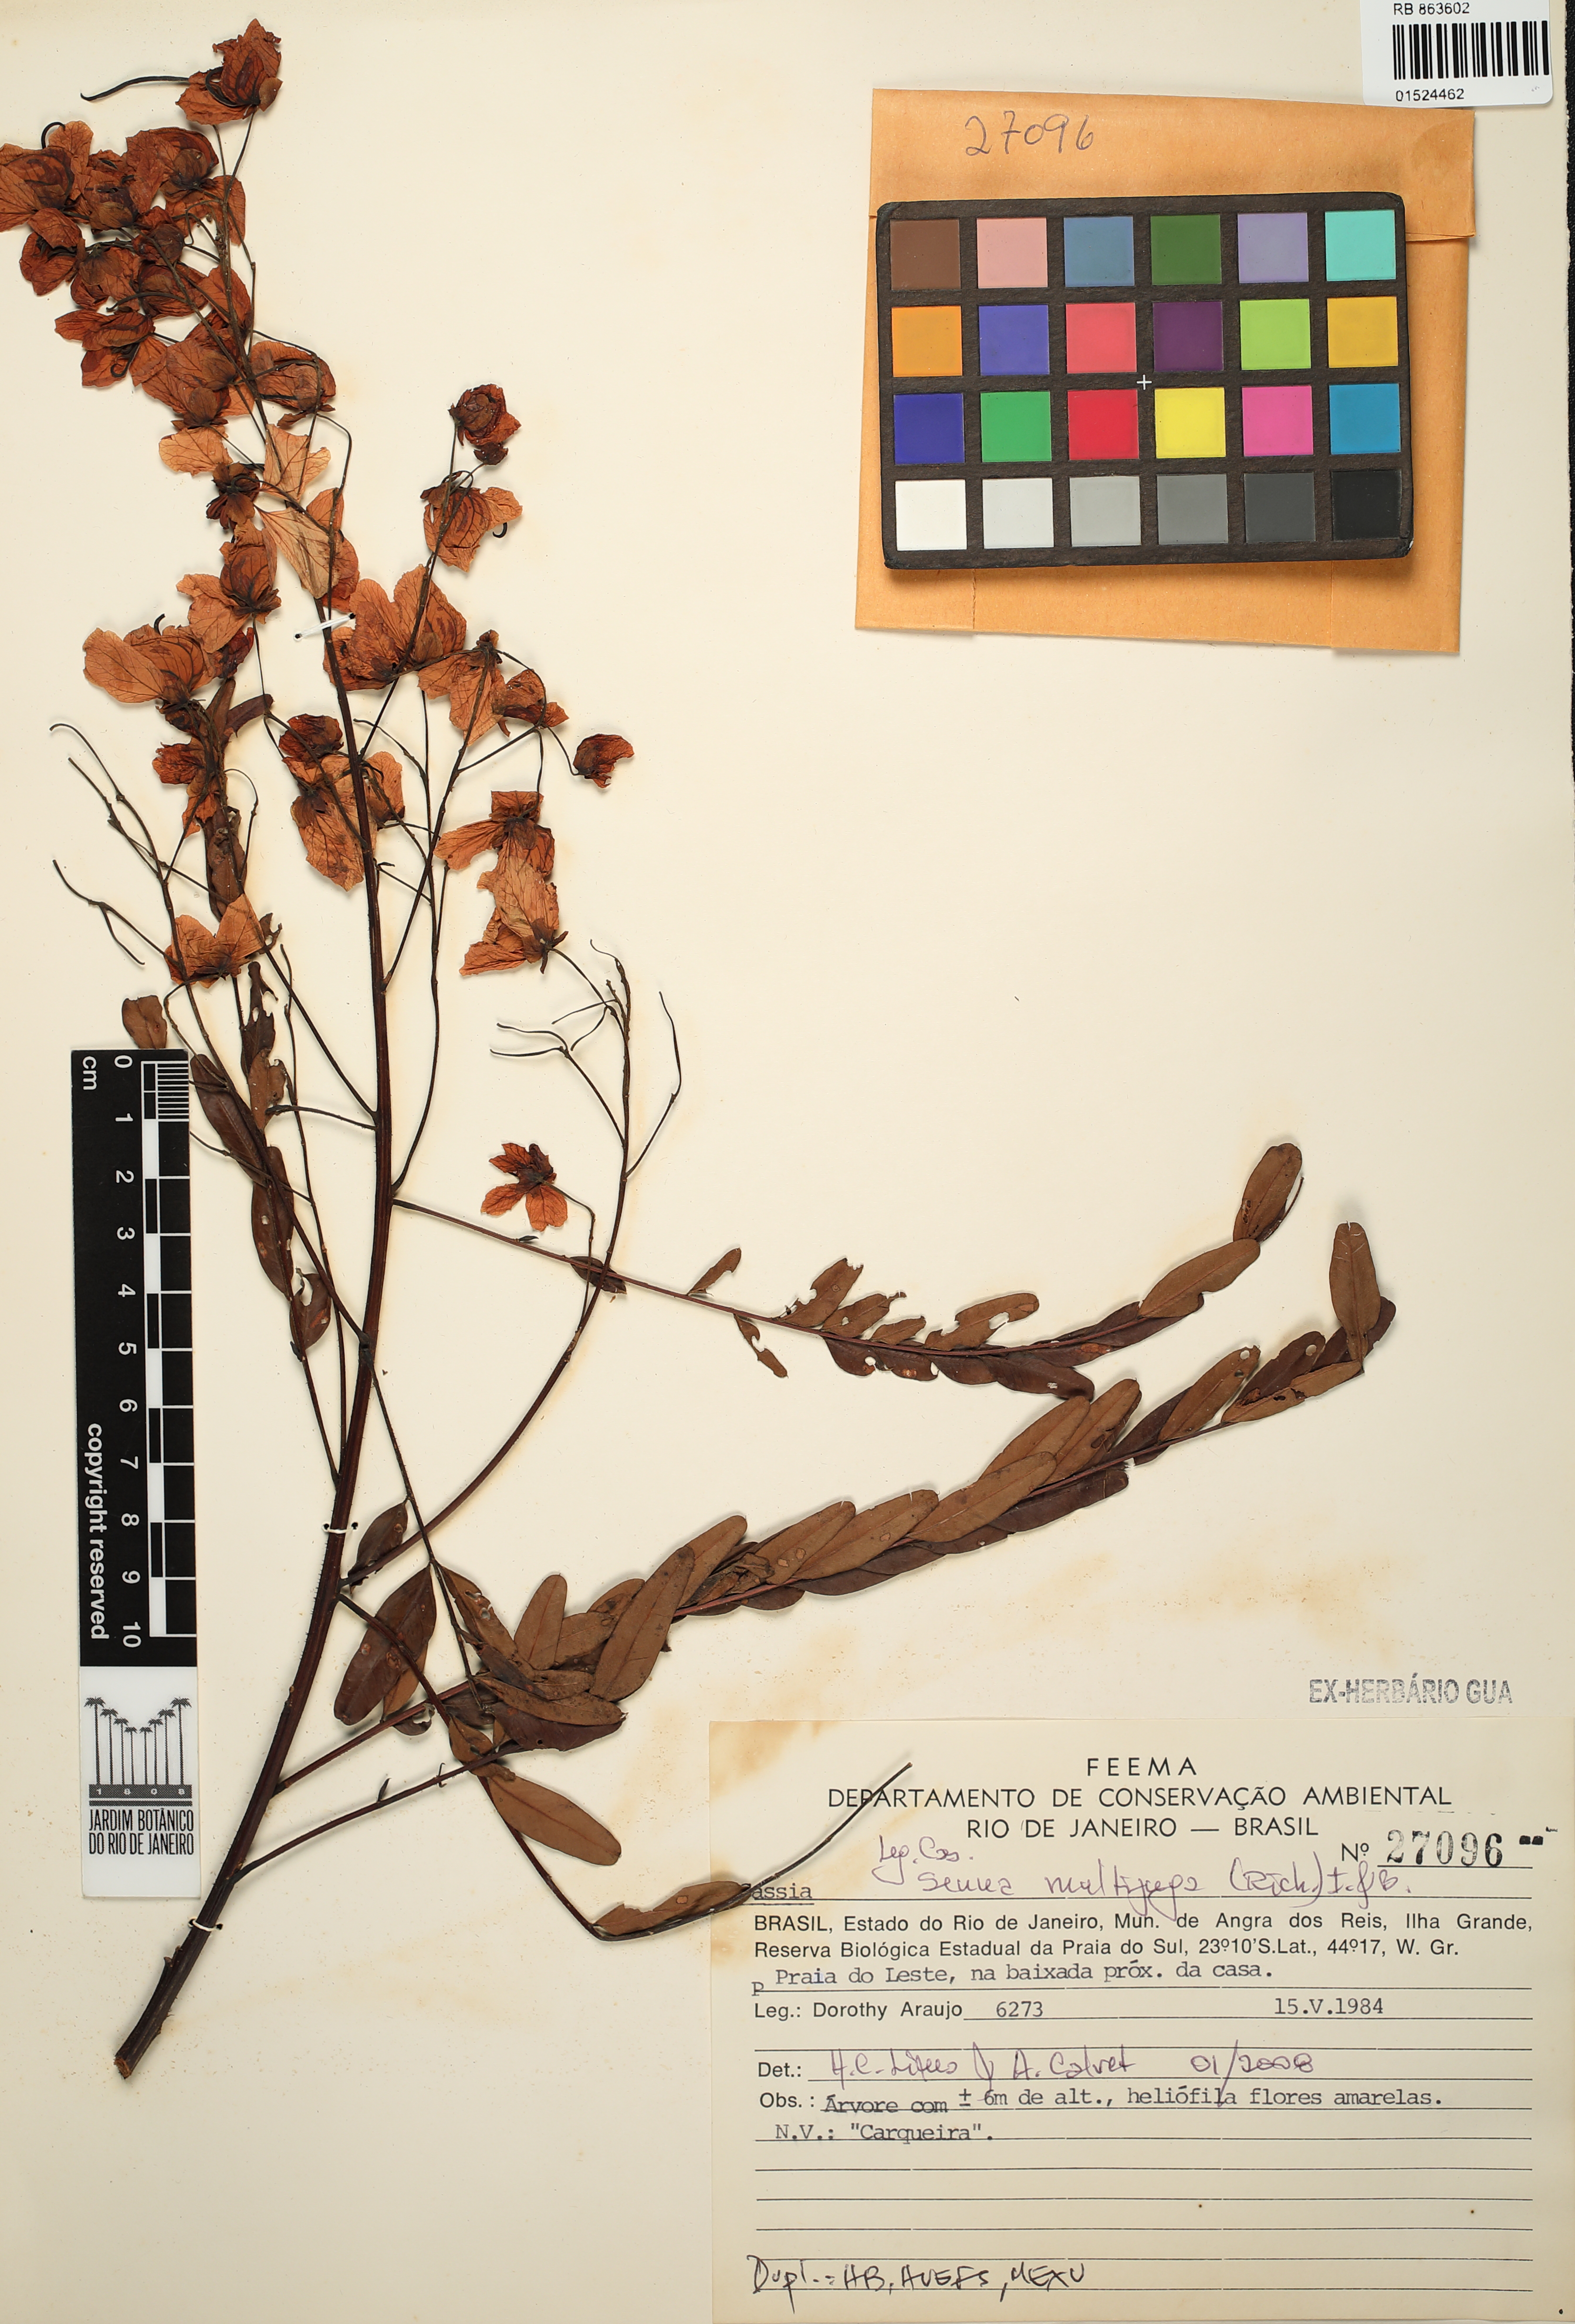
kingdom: Plantae
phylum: Tracheophyta
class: Magnoliopsida
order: Fabales
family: Fabaceae
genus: Senna
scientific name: Senna multijuga
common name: False sicklepod
